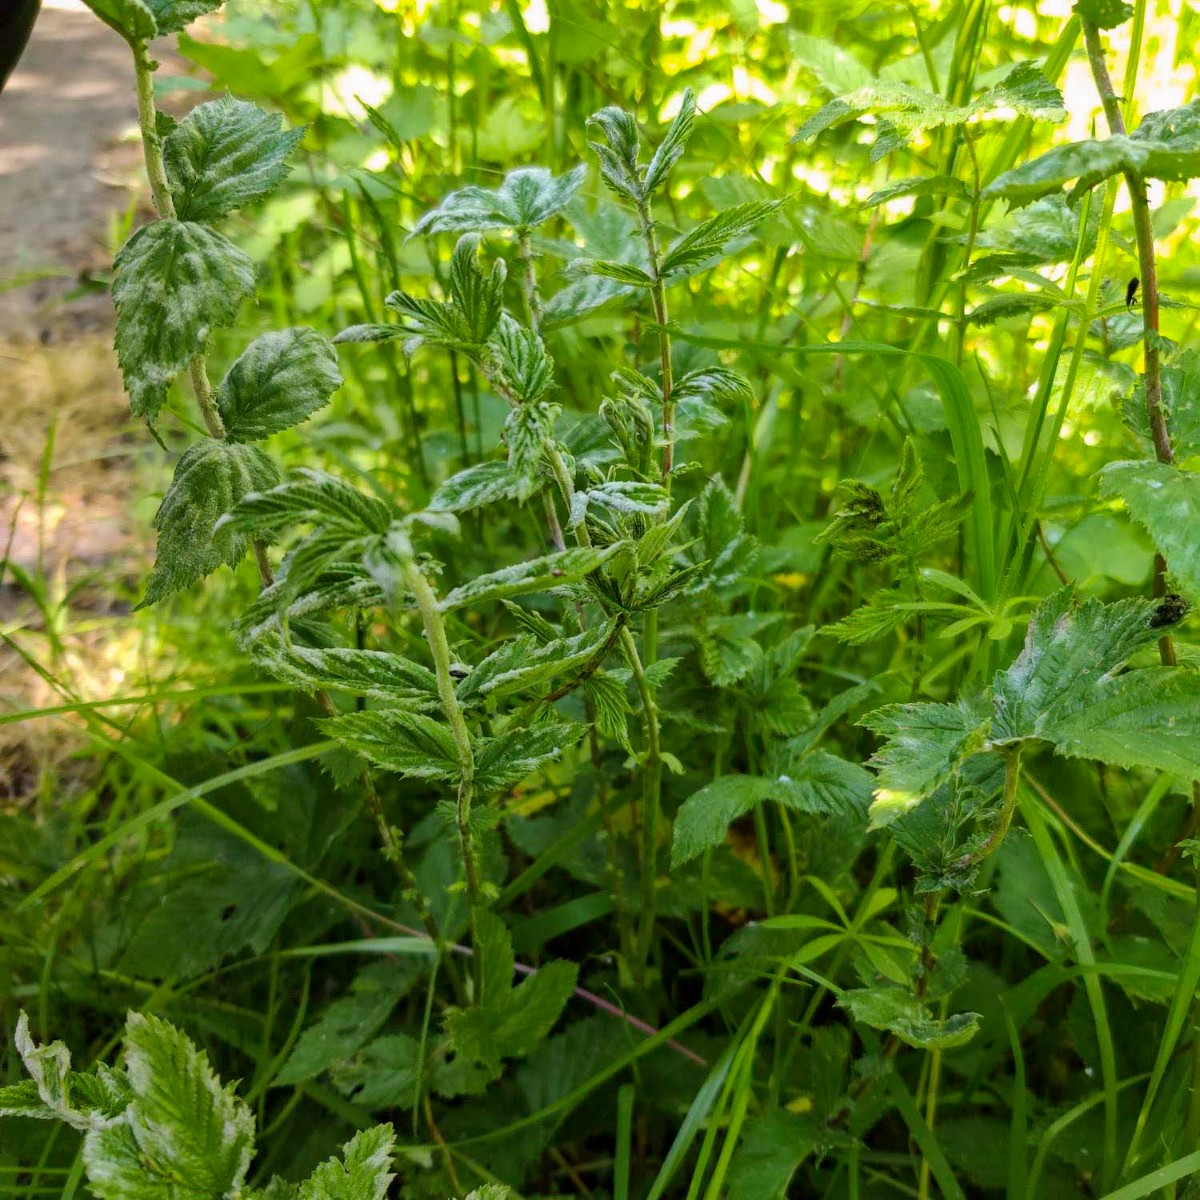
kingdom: Fungi
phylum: Ascomycota
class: Leotiomycetes
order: Helotiales
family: Erysiphaceae
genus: Podosphaera
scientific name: Podosphaera filipendulae
